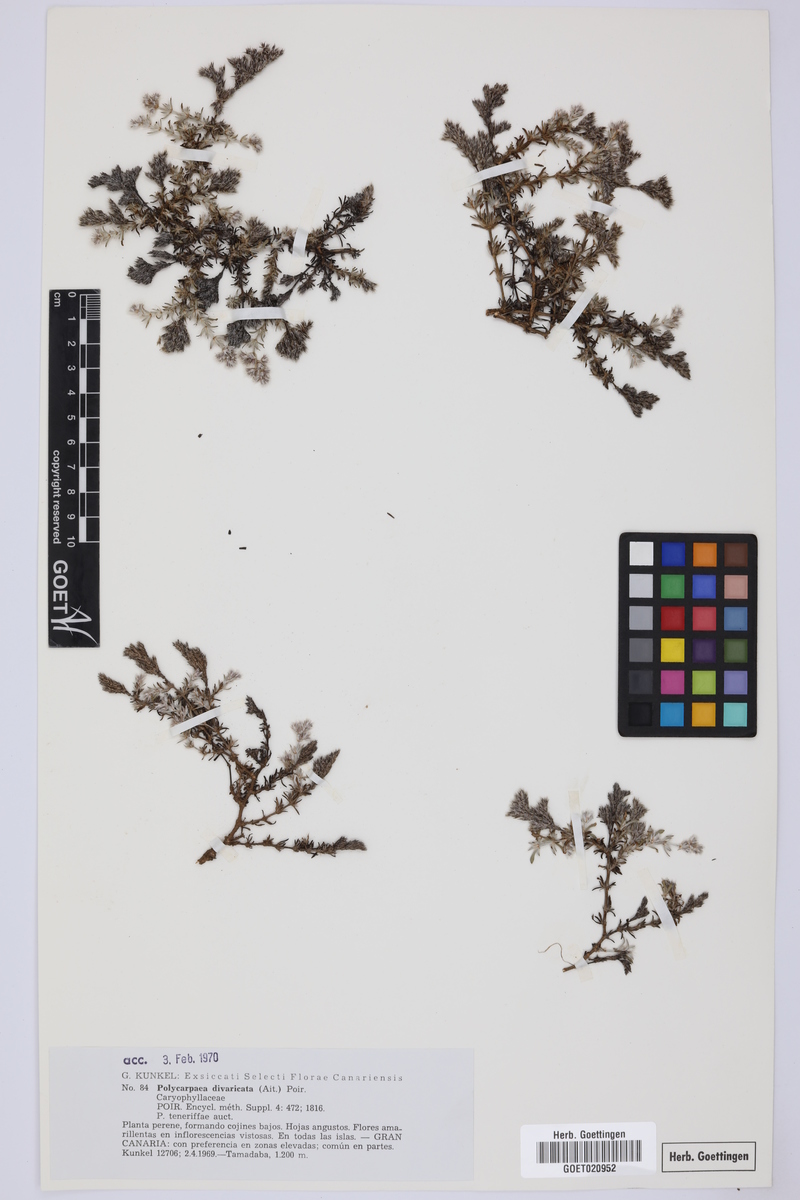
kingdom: Plantae
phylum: Tracheophyta
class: Magnoliopsida
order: Caryophyllales
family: Caryophyllaceae
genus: Polycarpaea
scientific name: Polycarpaea divaricata
